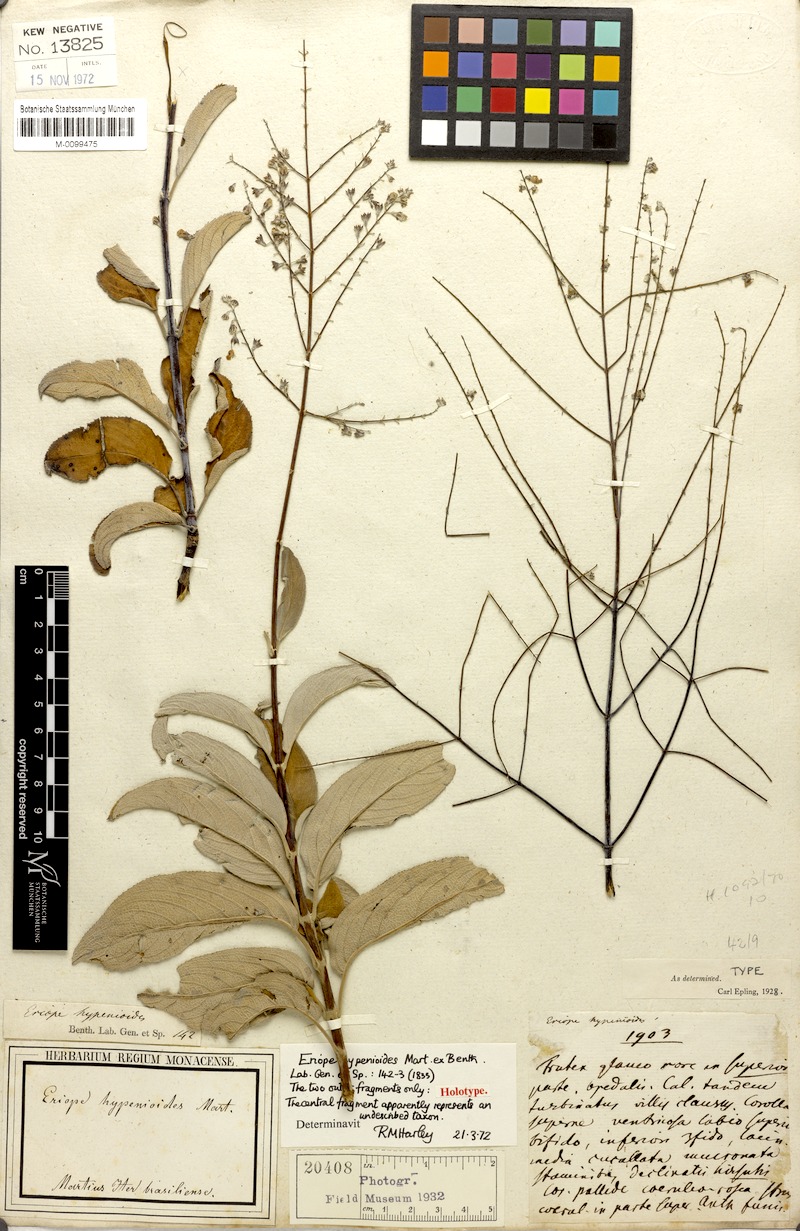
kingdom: Plantae
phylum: Tracheophyta
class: Magnoliopsida
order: Lamiales
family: Lamiaceae
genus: Eriope
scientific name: Eriope hypenioides
